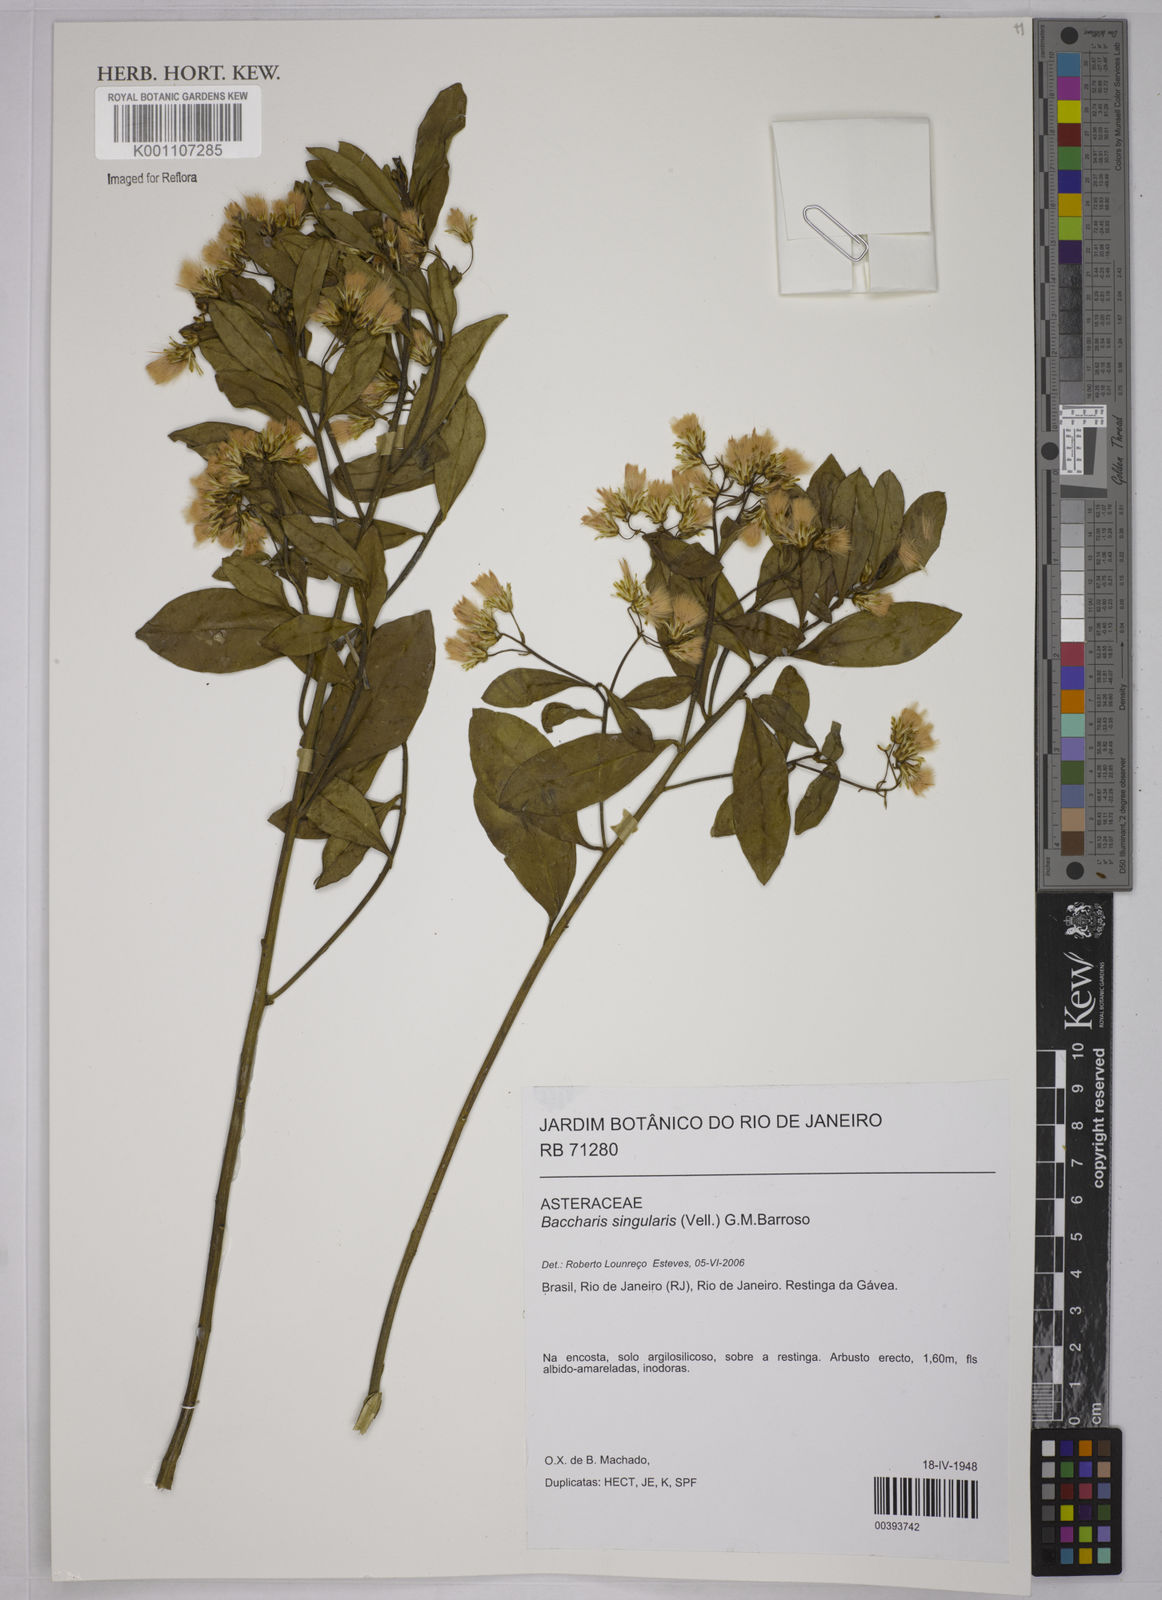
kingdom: Plantae
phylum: Tracheophyta
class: Magnoliopsida
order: Asterales
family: Asteraceae
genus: Baccharis
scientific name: Baccharis singularis
